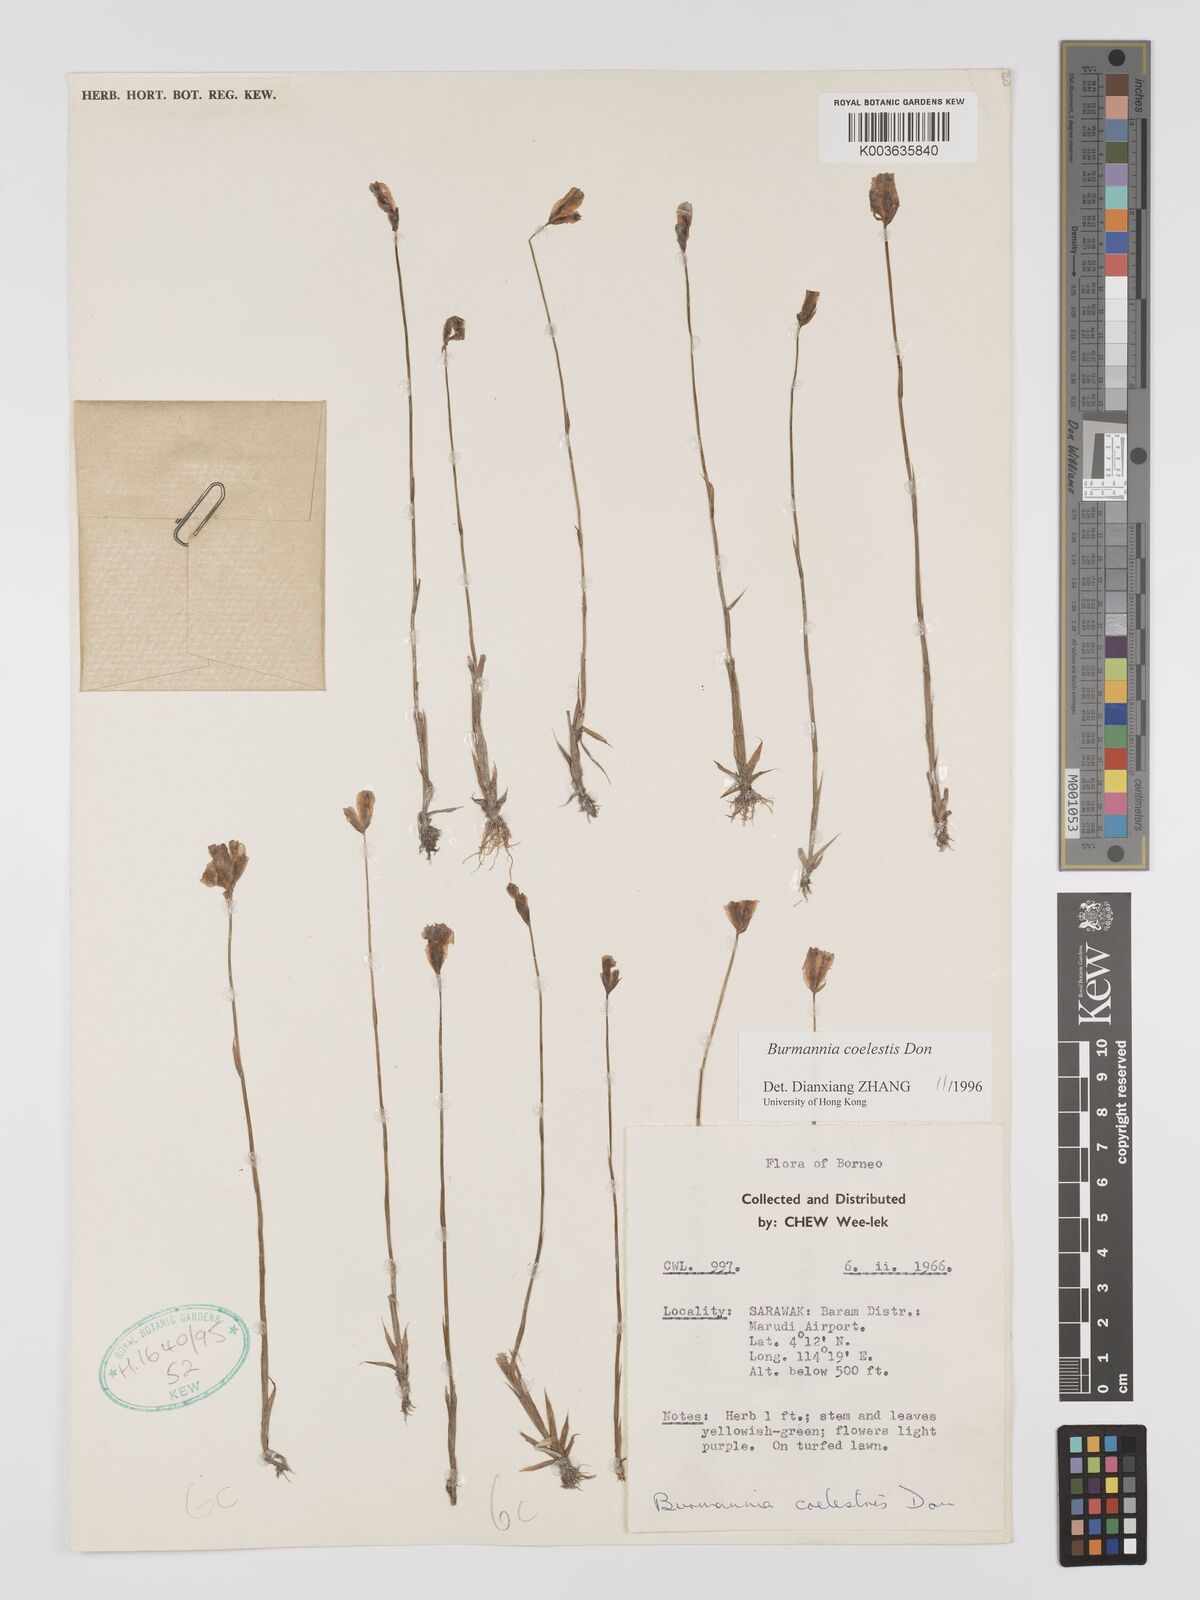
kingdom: Plantae
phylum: Tracheophyta
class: Liliopsida
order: Dioscoreales
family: Burmanniaceae
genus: Burmannia
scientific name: Burmannia disticha
